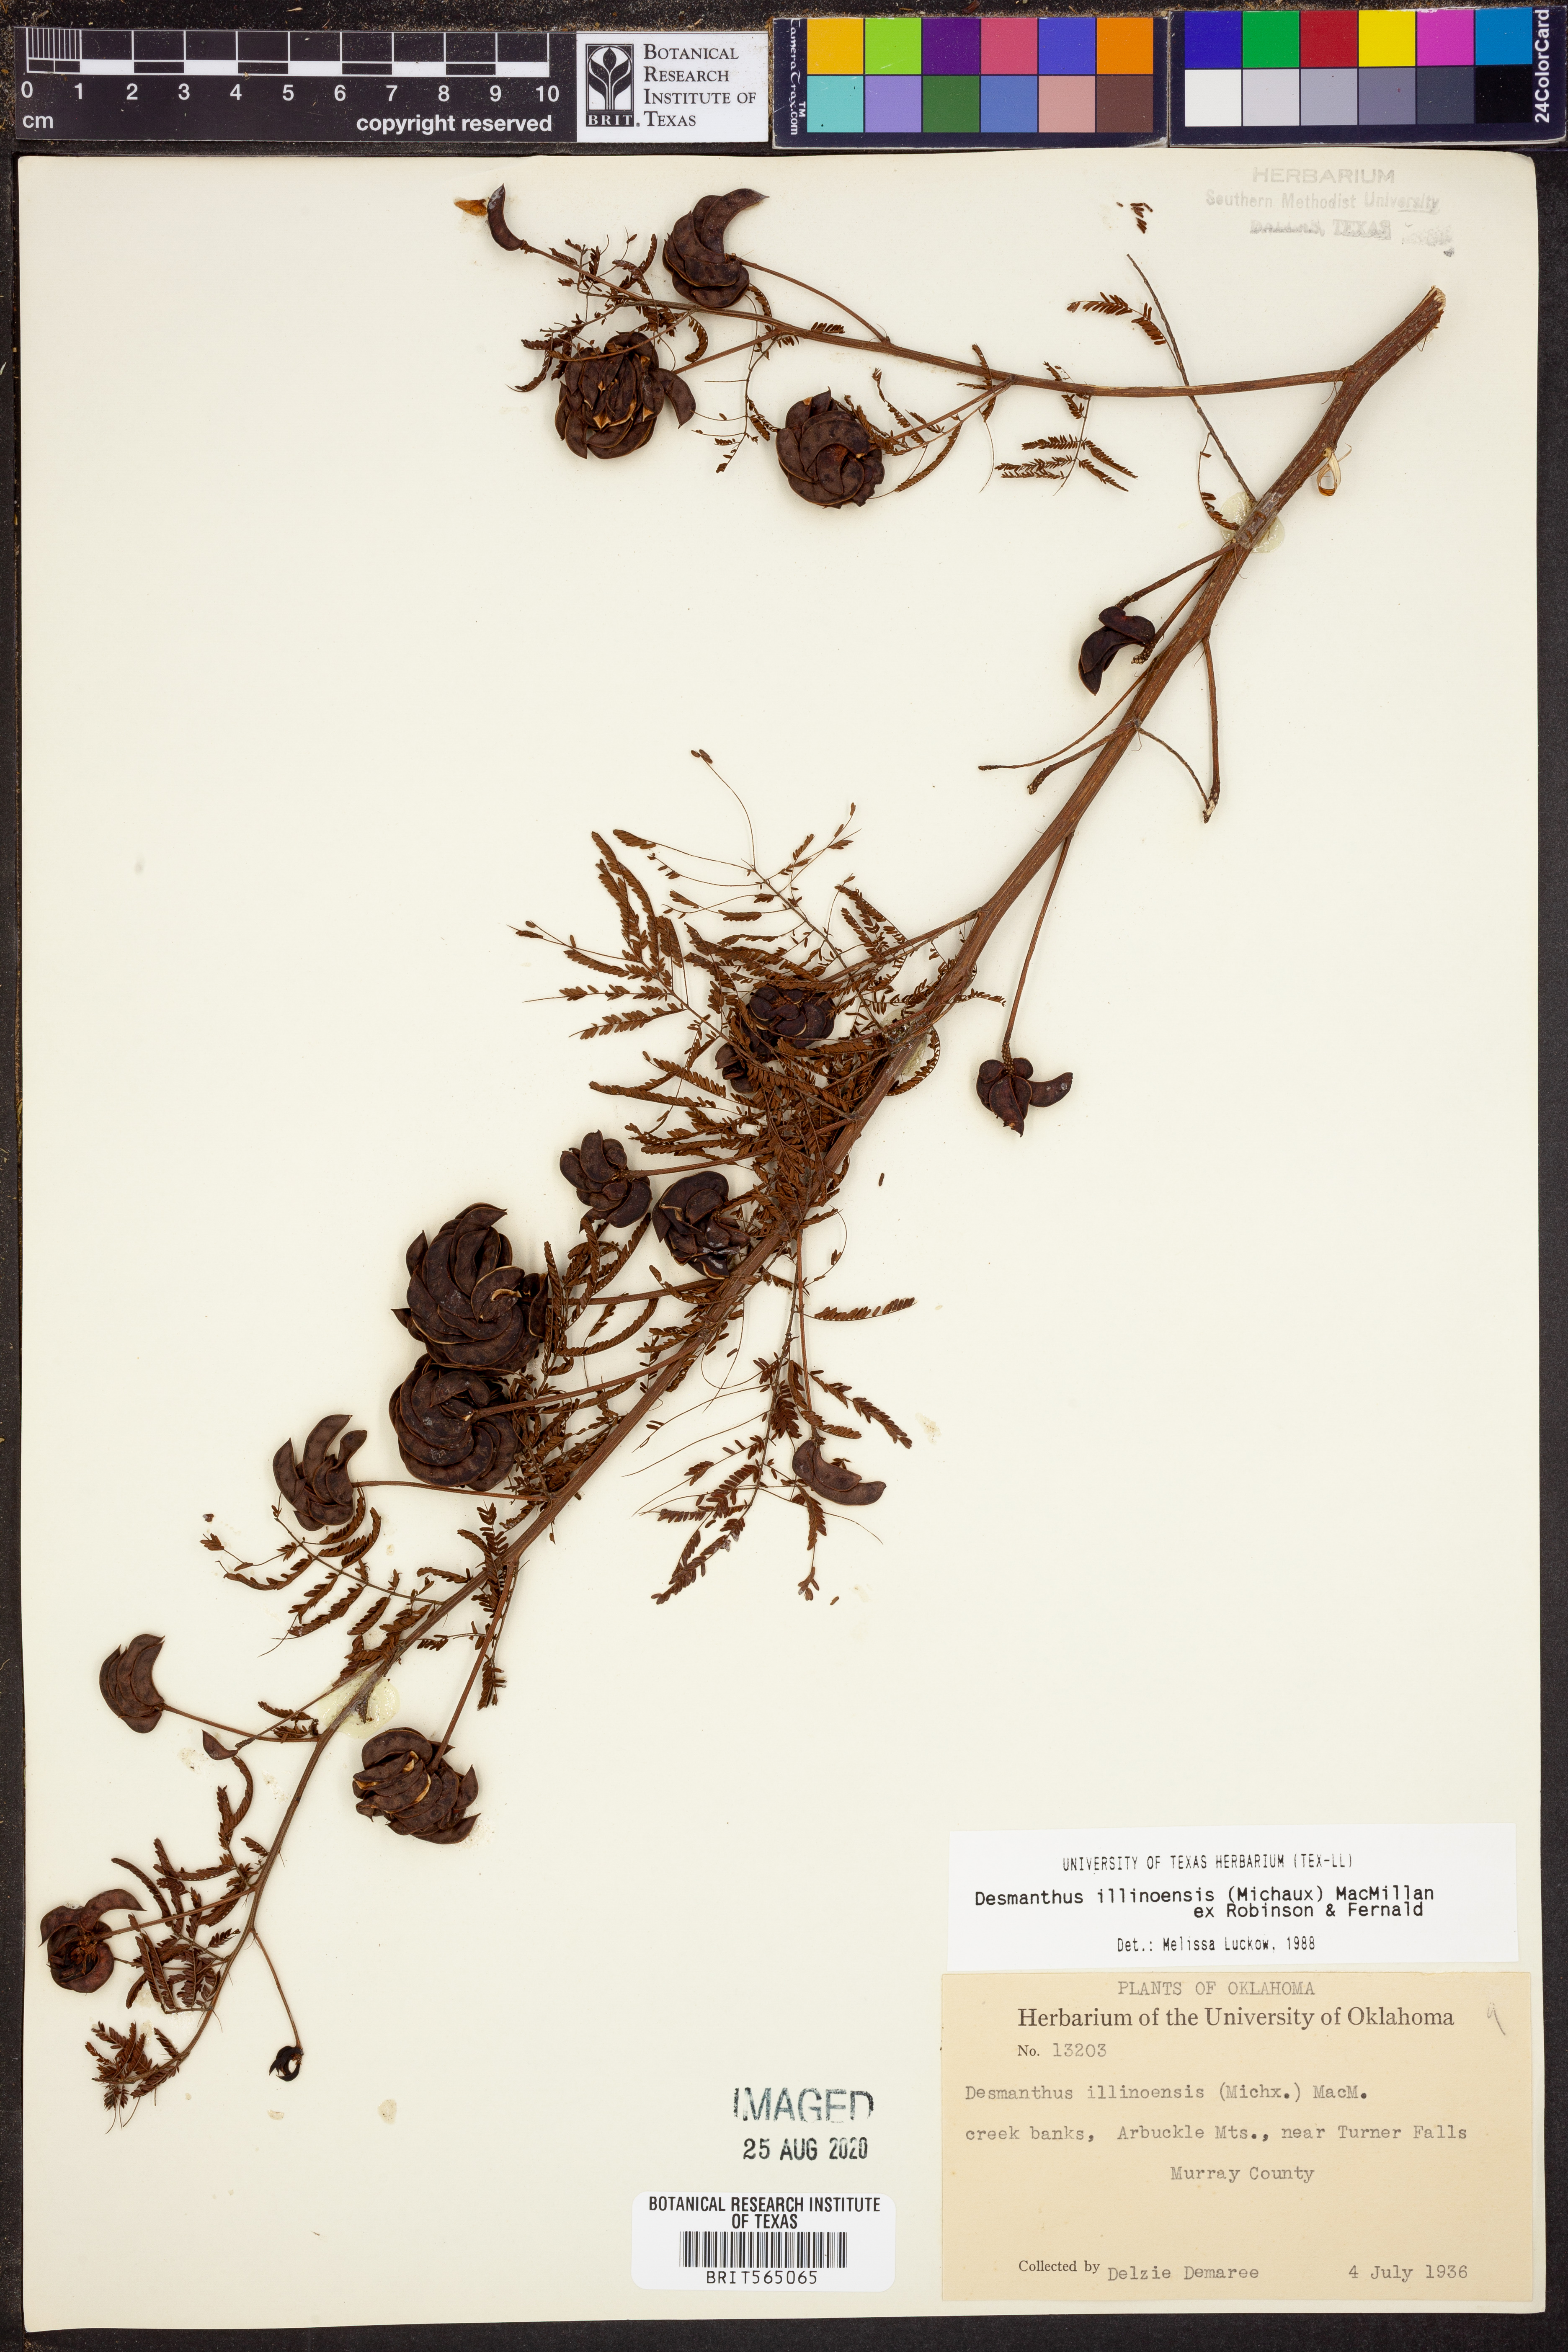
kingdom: Plantae
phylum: Tracheophyta
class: Magnoliopsida
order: Fabales
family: Fabaceae
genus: Desmanthus
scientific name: Desmanthus illinoensis
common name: Illinois bundle-flower
